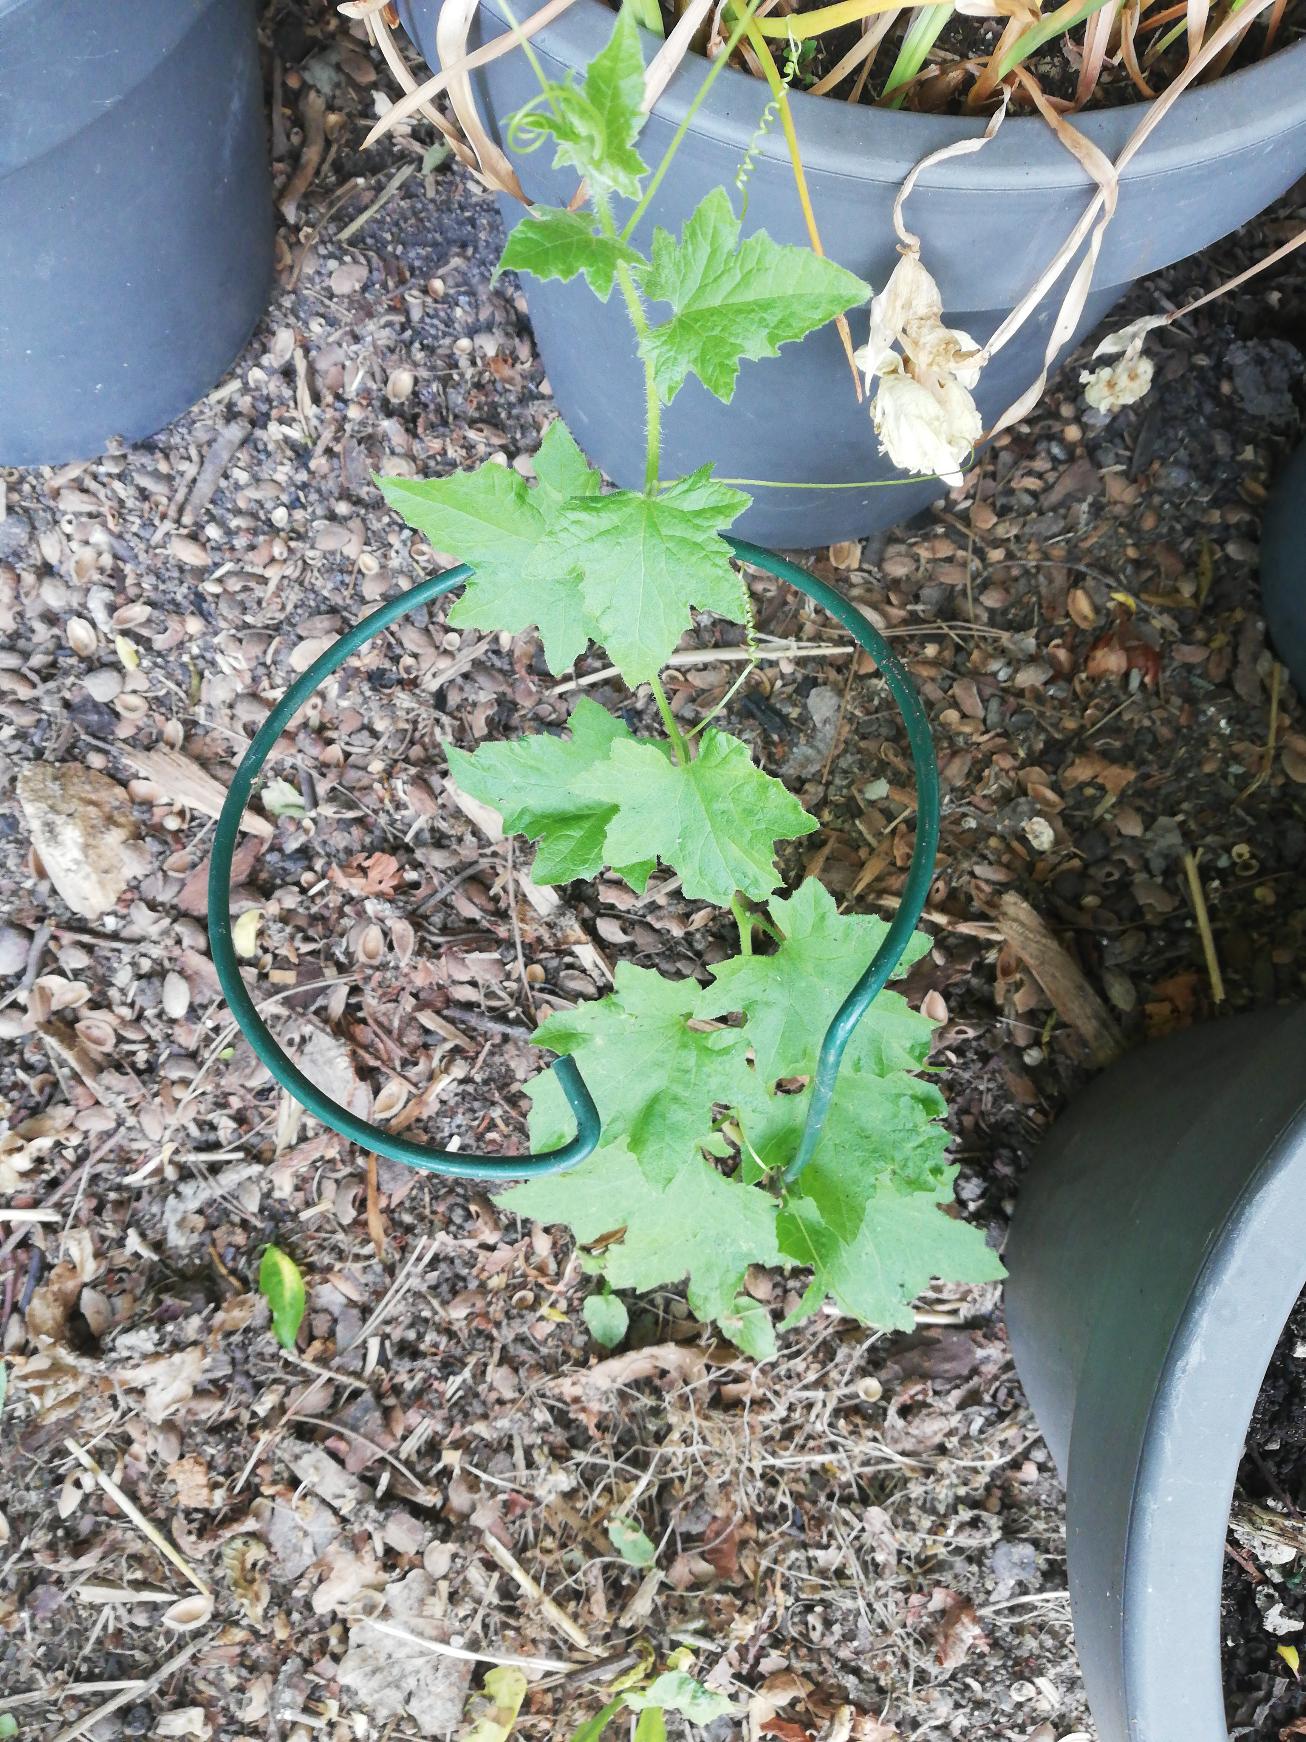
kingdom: Plantae
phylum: Tracheophyta
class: Magnoliopsida
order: Cucurbitales
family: Cucurbitaceae
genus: Bryonia
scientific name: Bryonia alba
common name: Enbo galdebær
